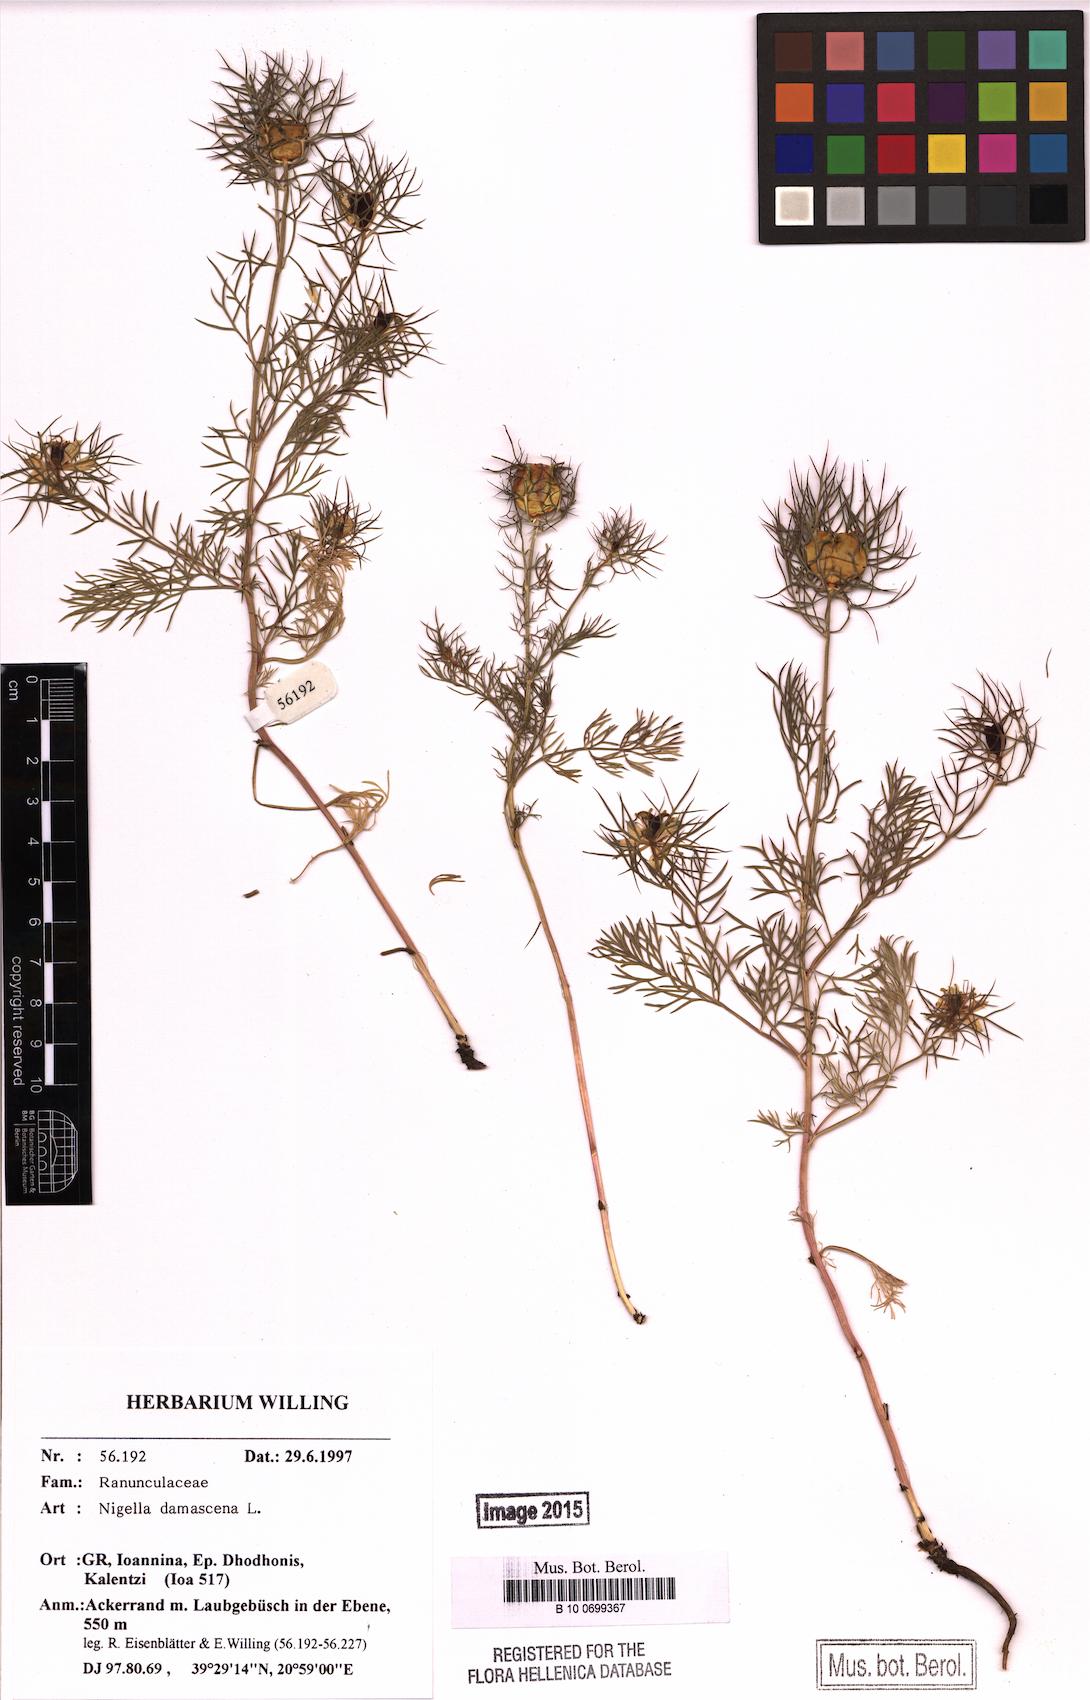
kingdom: Plantae
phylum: Tracheophyta
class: Magnoliopsida
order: Ranunculales
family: Ranunculaceae
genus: Nigella
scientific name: Nigella damascena
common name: Love-in-a-mist
